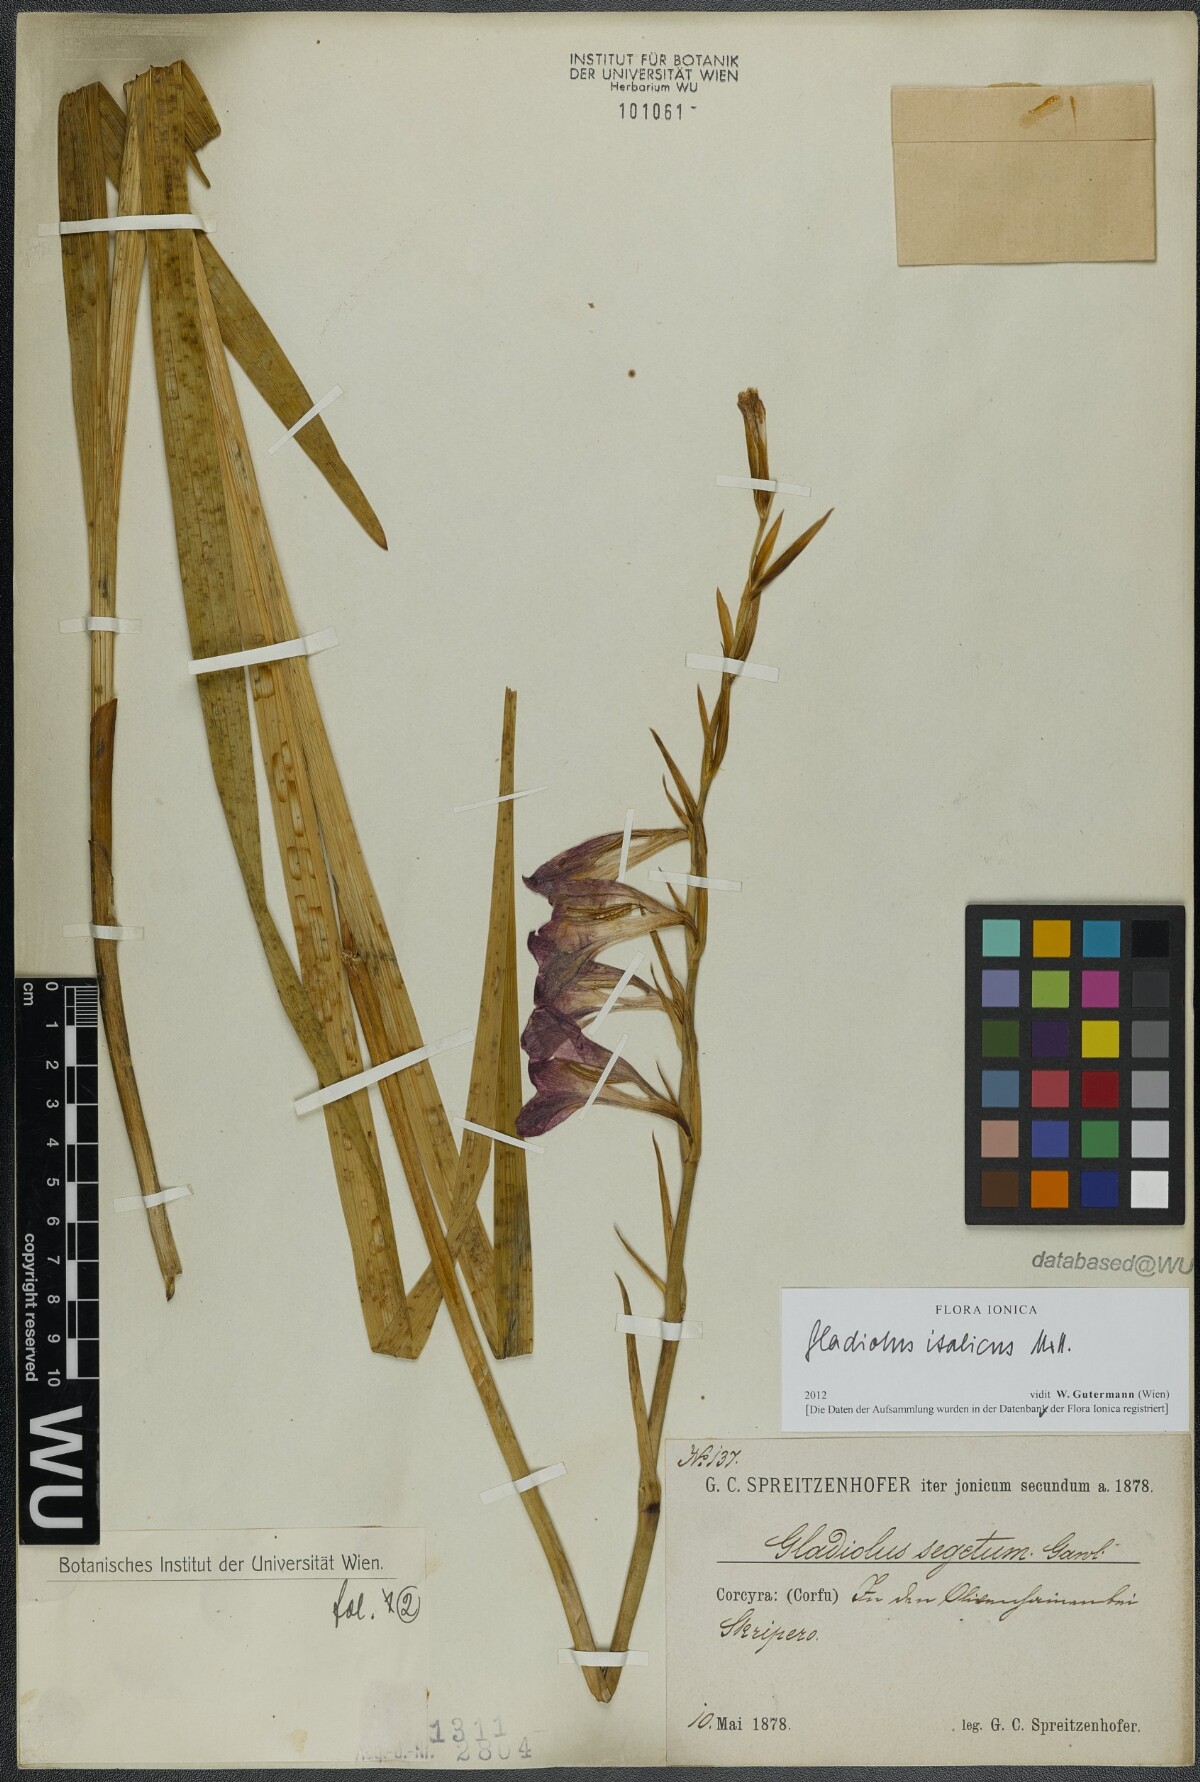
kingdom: Plantae
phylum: Tracheophyta
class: Liliopsida
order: Asparagales
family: Iridaceae
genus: Gladiolus
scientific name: Gladiolus italicus
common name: Field gladiolus
